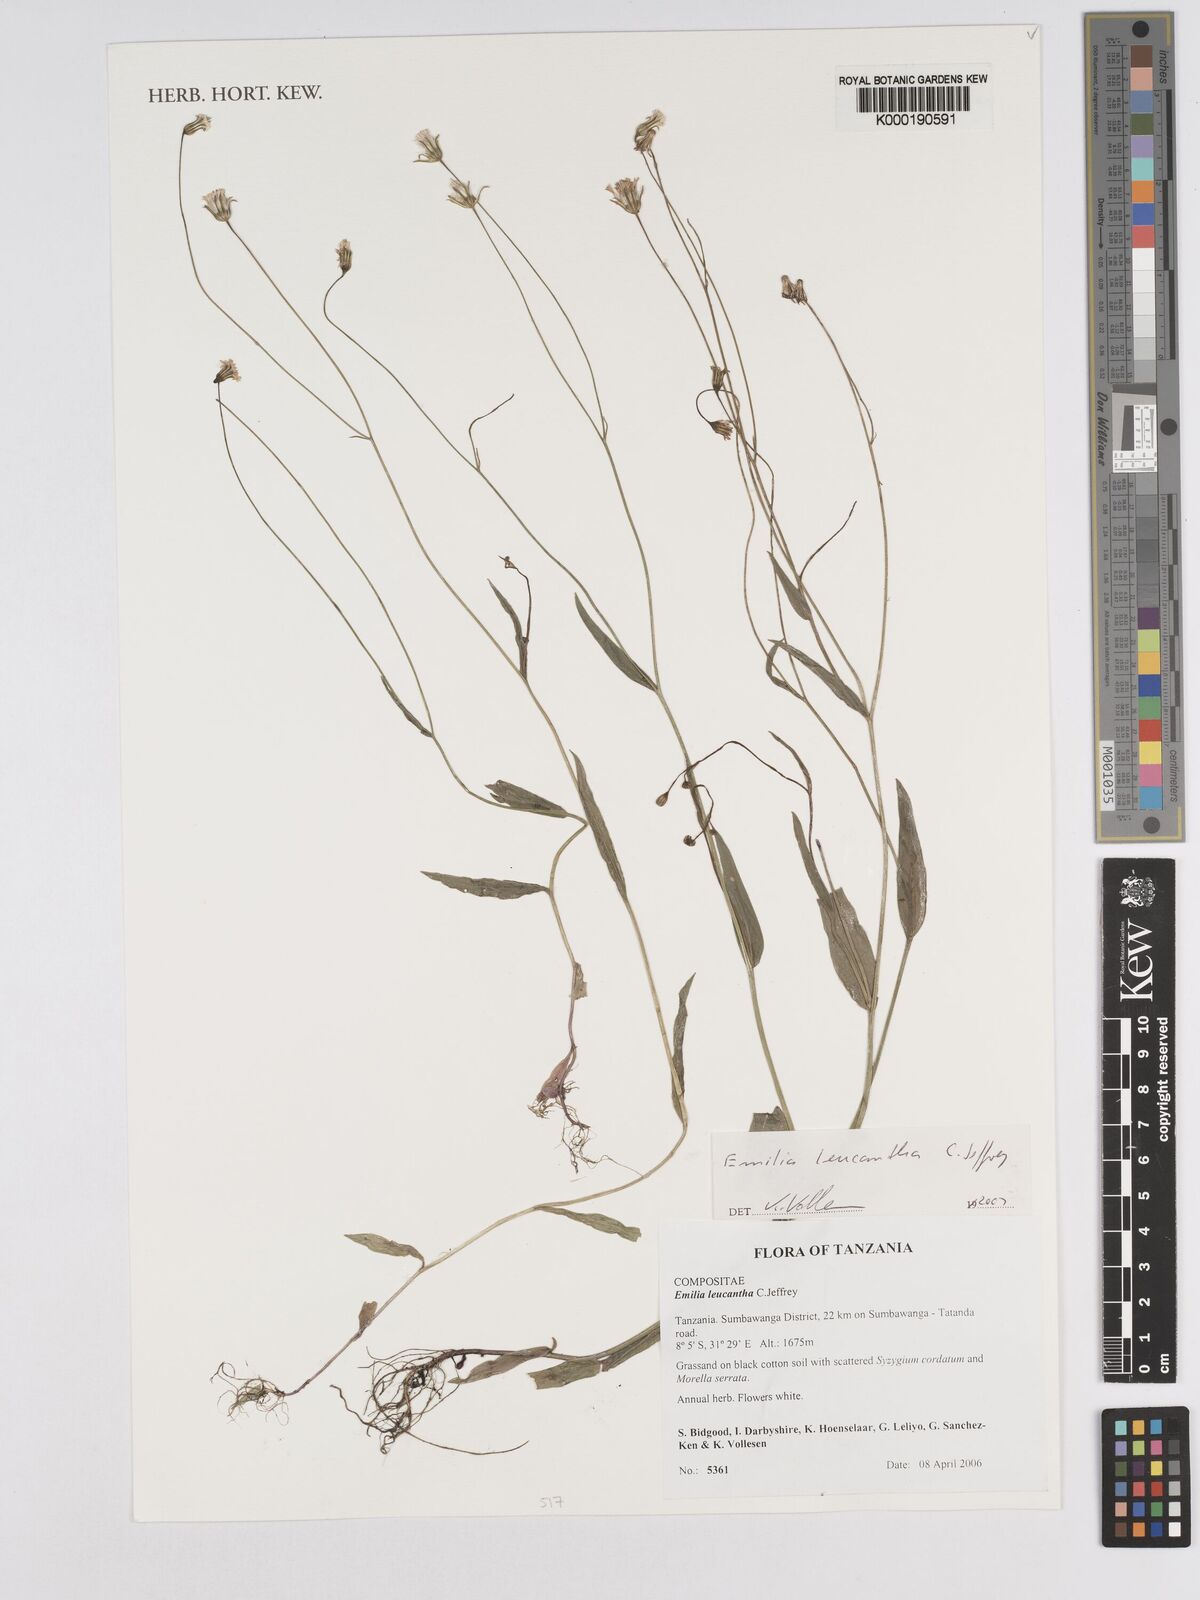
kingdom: Plantae
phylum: Tracheophyta
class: Magnoliopsida
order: Asterales
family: Asteraceae
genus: Emilia
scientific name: Emilia leucantha
